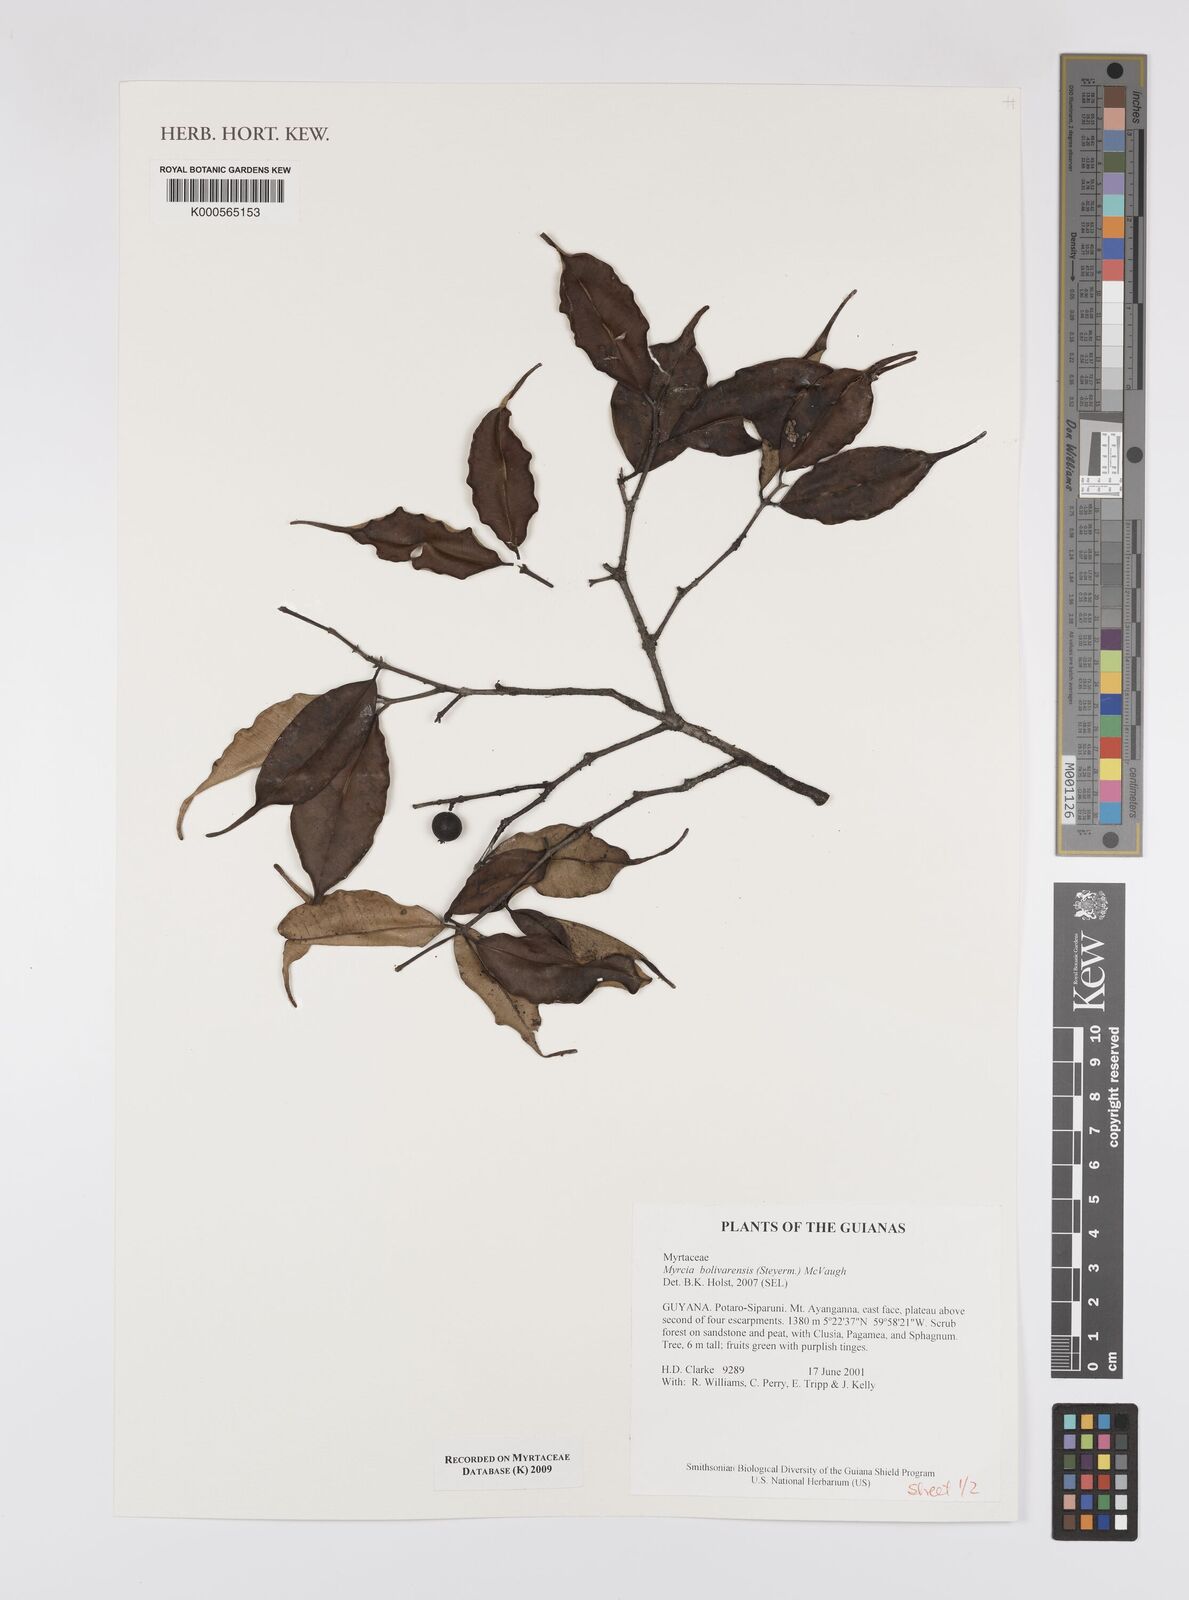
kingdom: Plantae
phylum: Tracheophyta
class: Magnoliopsida
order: Myrtales
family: Myrtaceae
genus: Myrcia
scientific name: Myrcia bolivarensis
